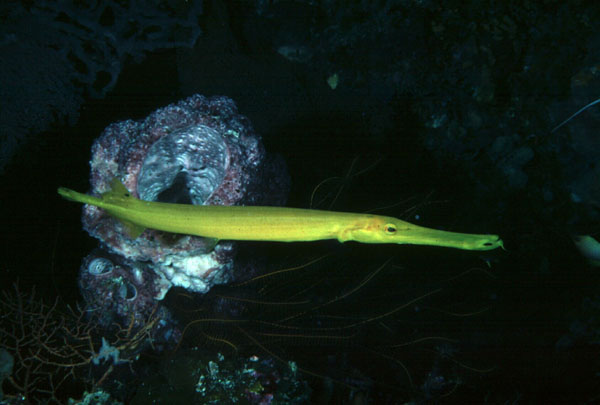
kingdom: Animalia
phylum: Chordata
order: Syngnathiformes
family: Aulostomidae
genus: Aulostomus
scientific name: Aulostomus chinensis
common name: Chinese trumpetfish
